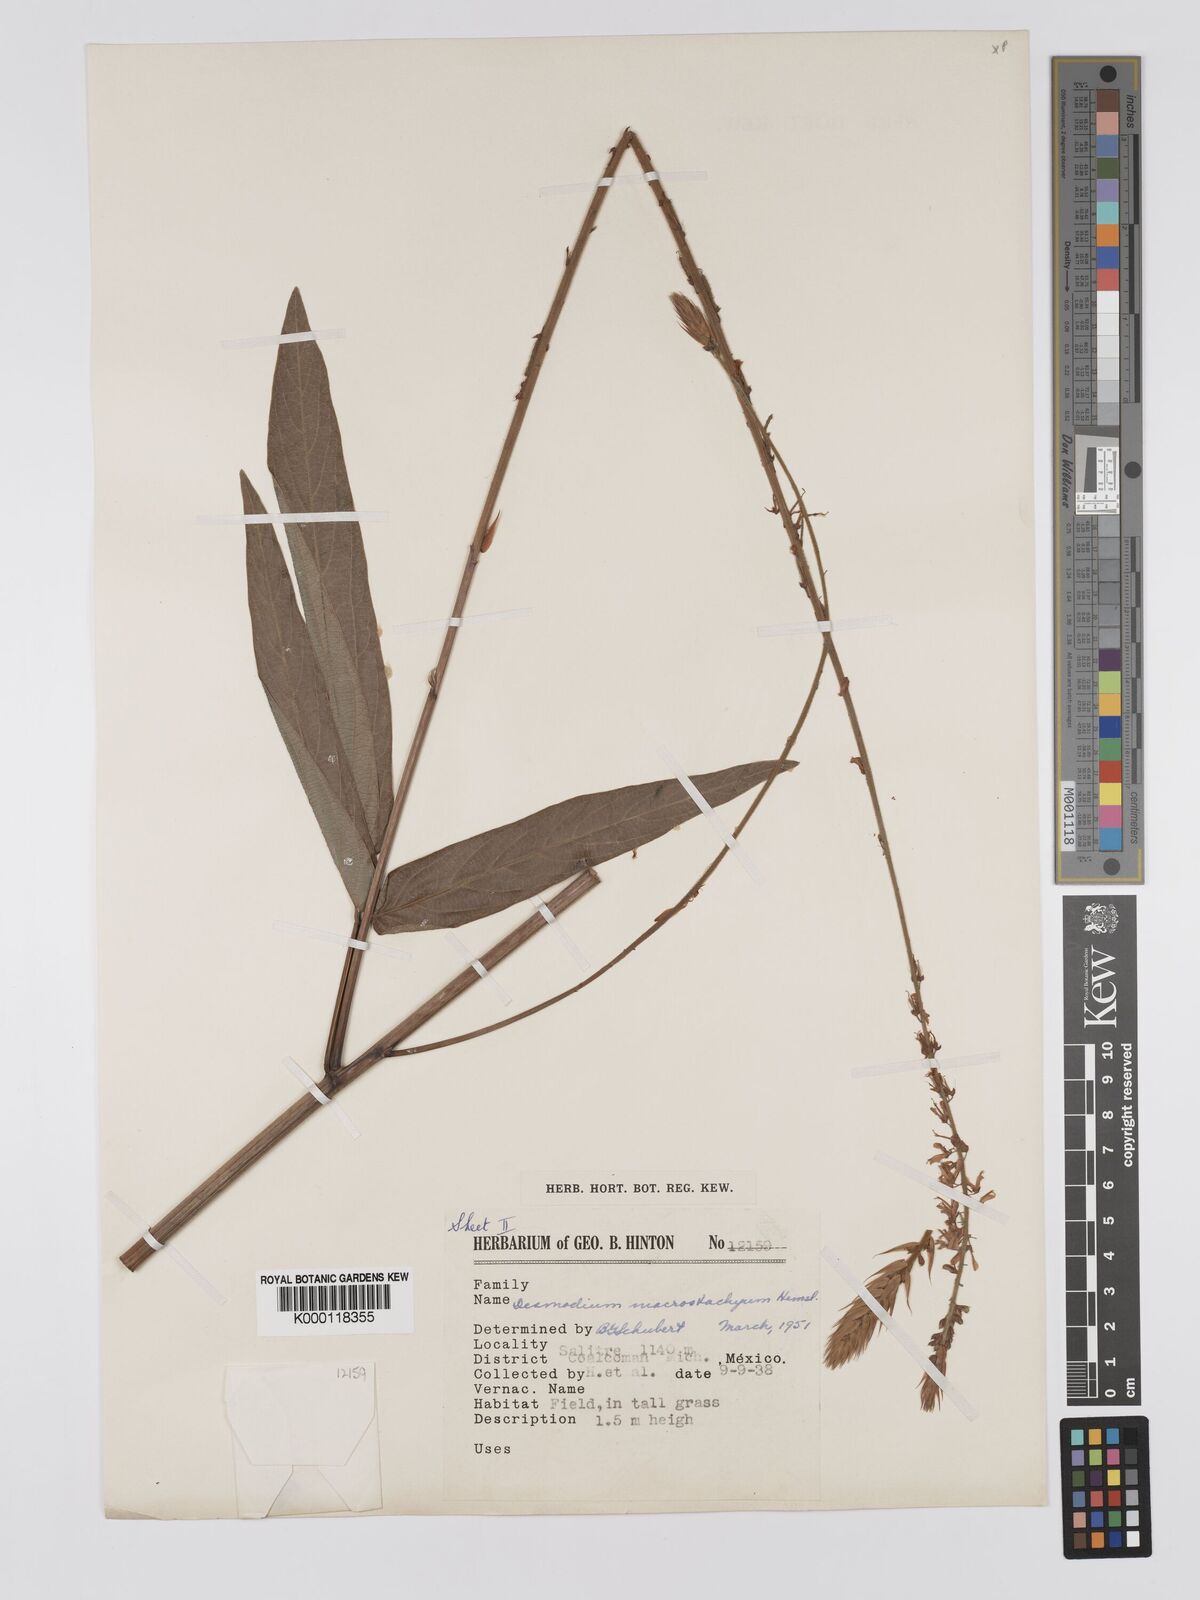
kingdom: Plantae
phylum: Tracheophyta
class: Magnoliopsida
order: Fabales
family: Fabaceae
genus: Desmodium
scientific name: Desmodium macrostachyum
